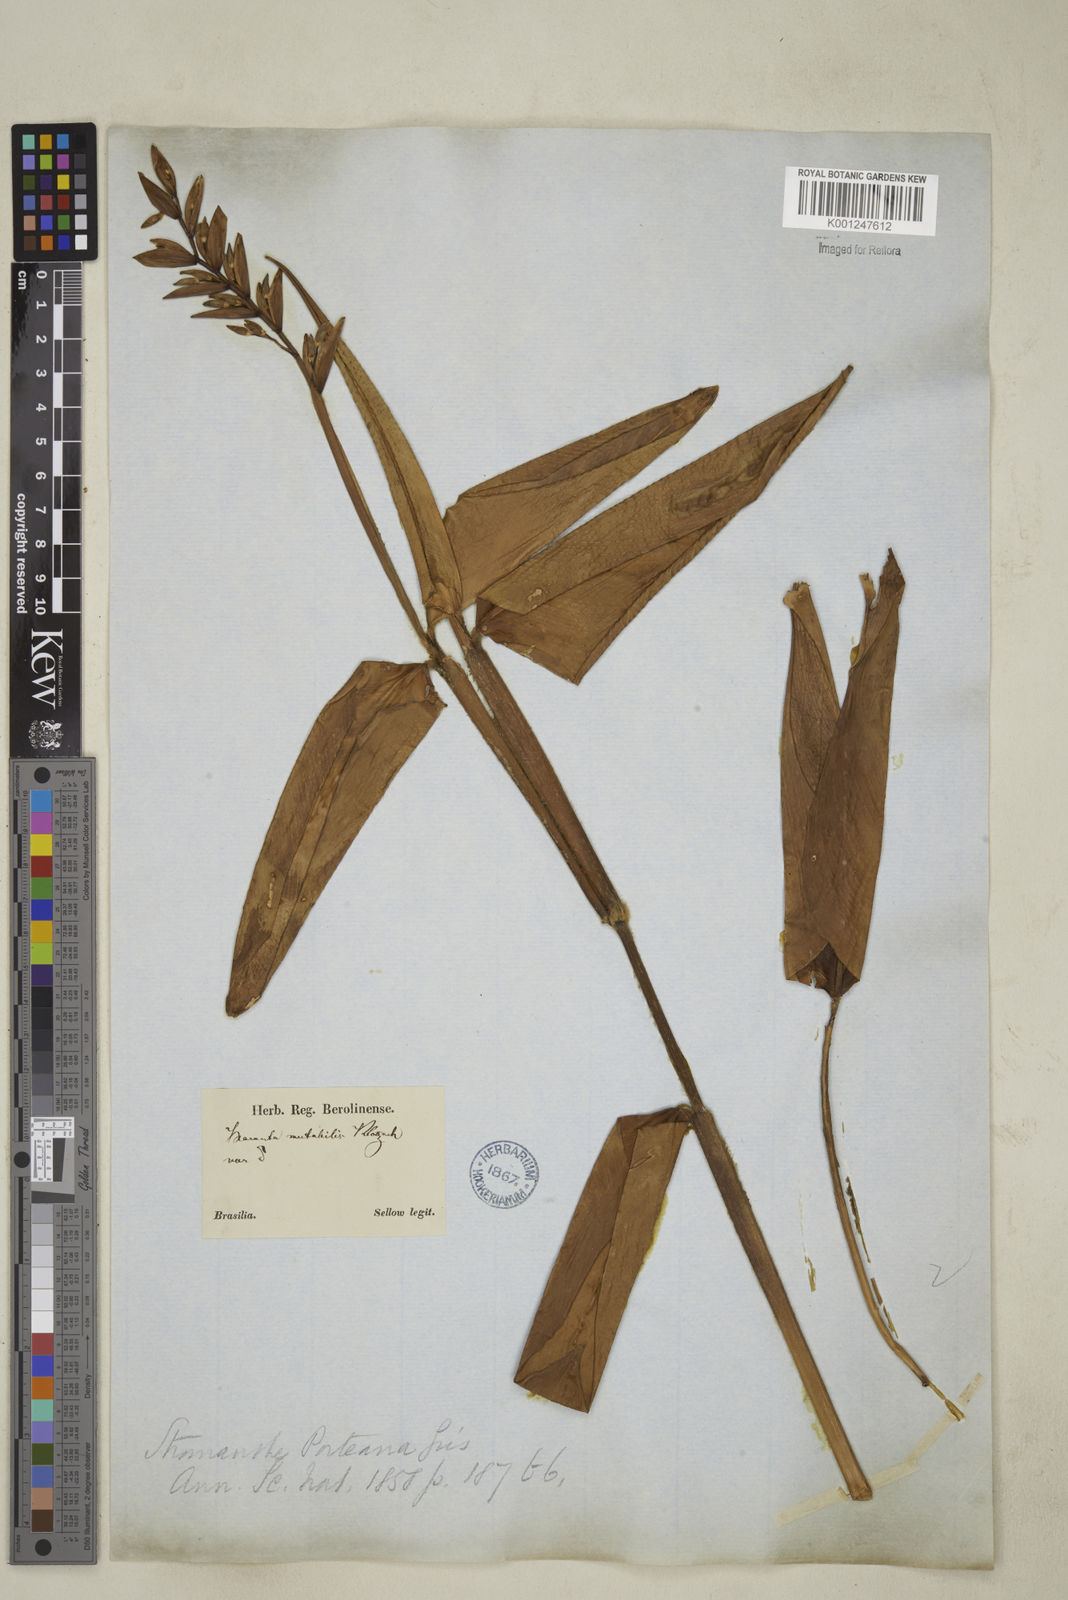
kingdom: Plantae
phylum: Tracheophyta
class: Liliopsida
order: Zingiberales
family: Marantaceae
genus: Stromanthe
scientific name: Stromanthe porteana
